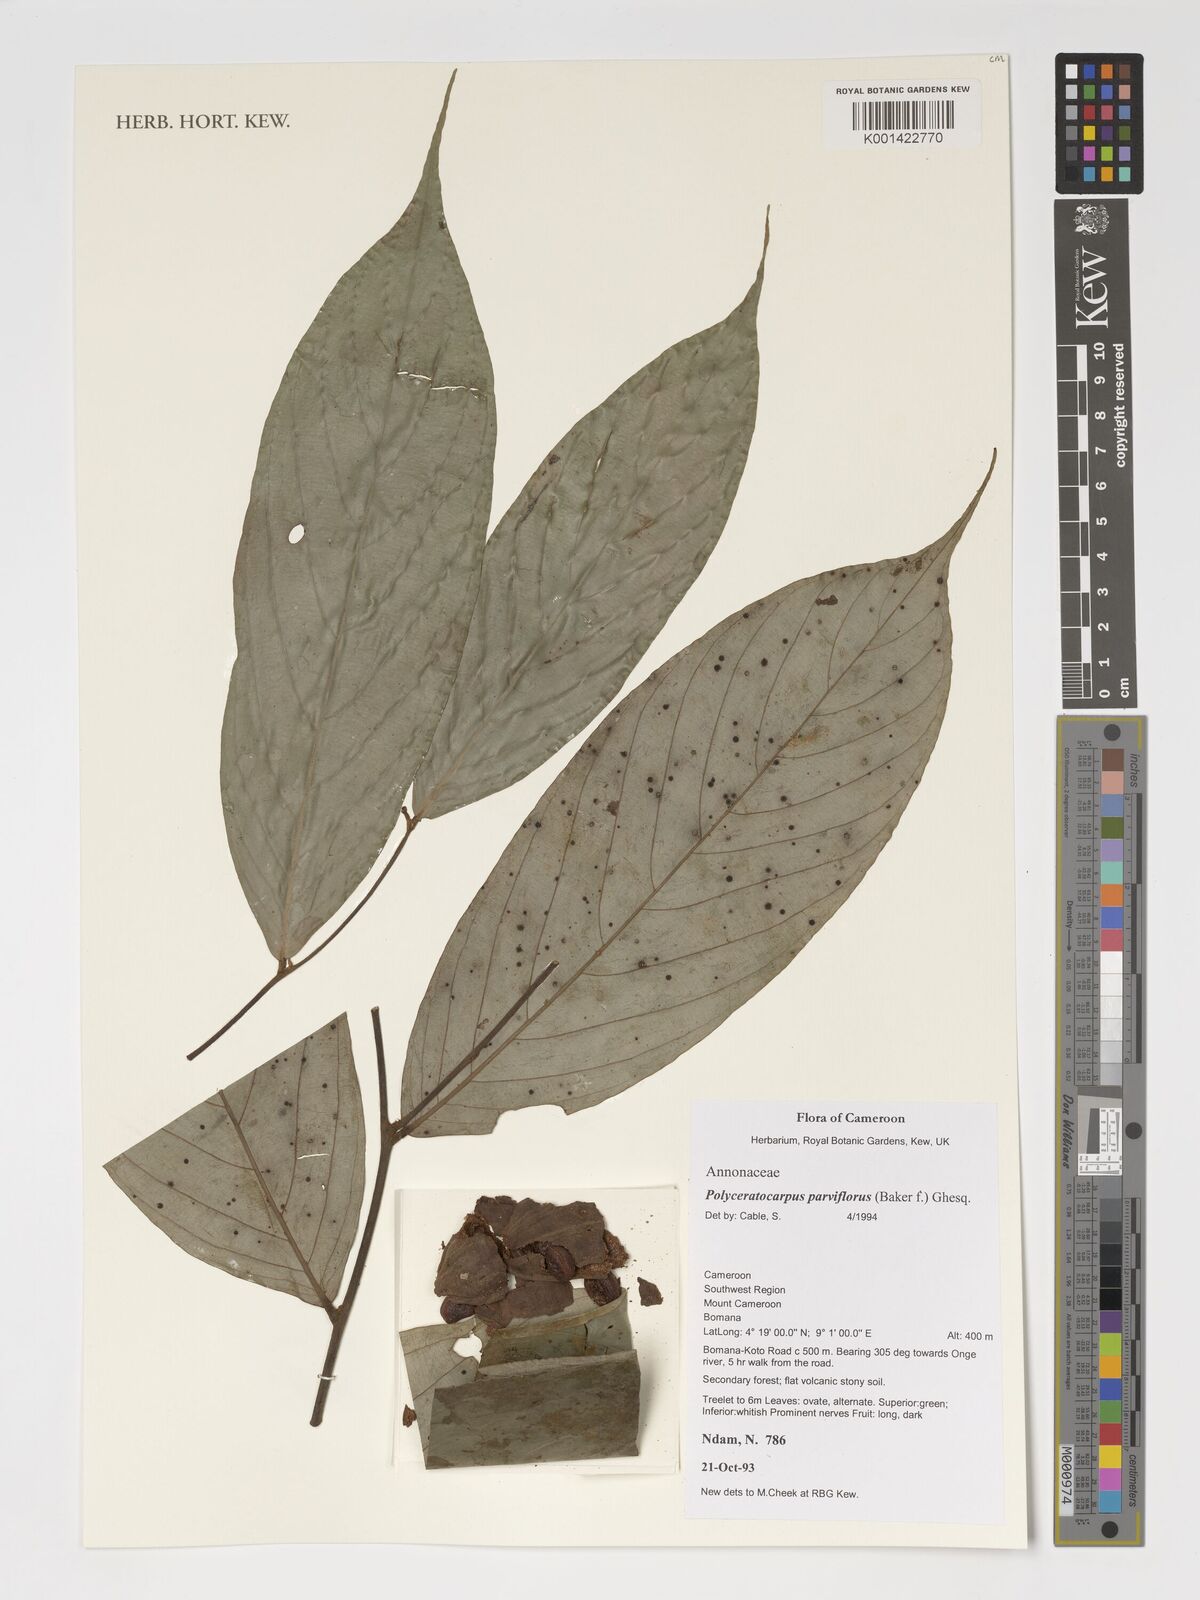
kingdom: Plantae
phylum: Tracheophyta
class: Magnoliopsida
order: Magnoliales
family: Annonaceae
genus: Polyceratocarpus
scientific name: Polyceratocarpus parviflorus
